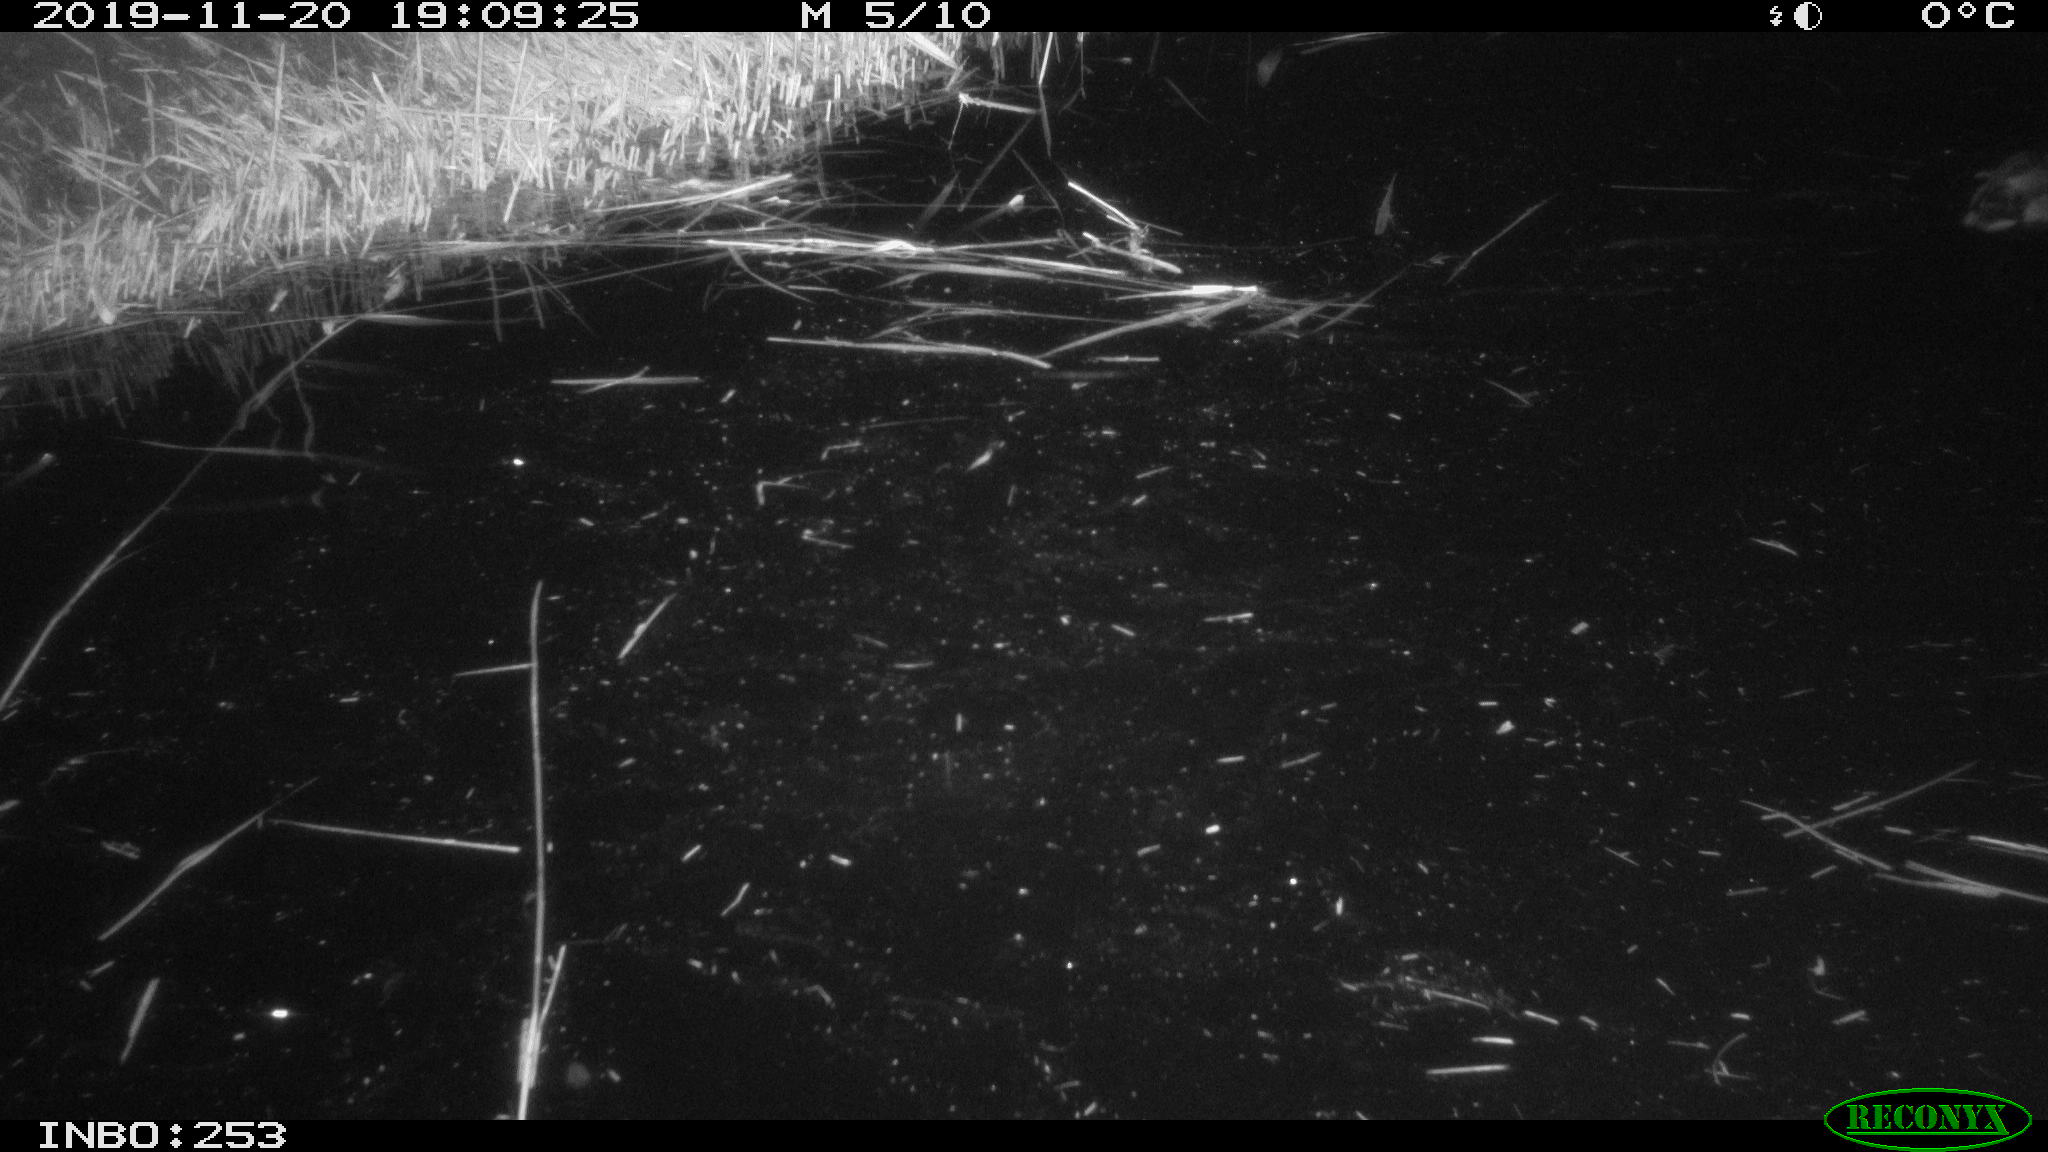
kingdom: Animalia
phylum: Chordata
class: Aves
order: Gruiformes
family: Rallidae
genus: Gallinula
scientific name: Gallinula chloropus
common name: Common moorhen
